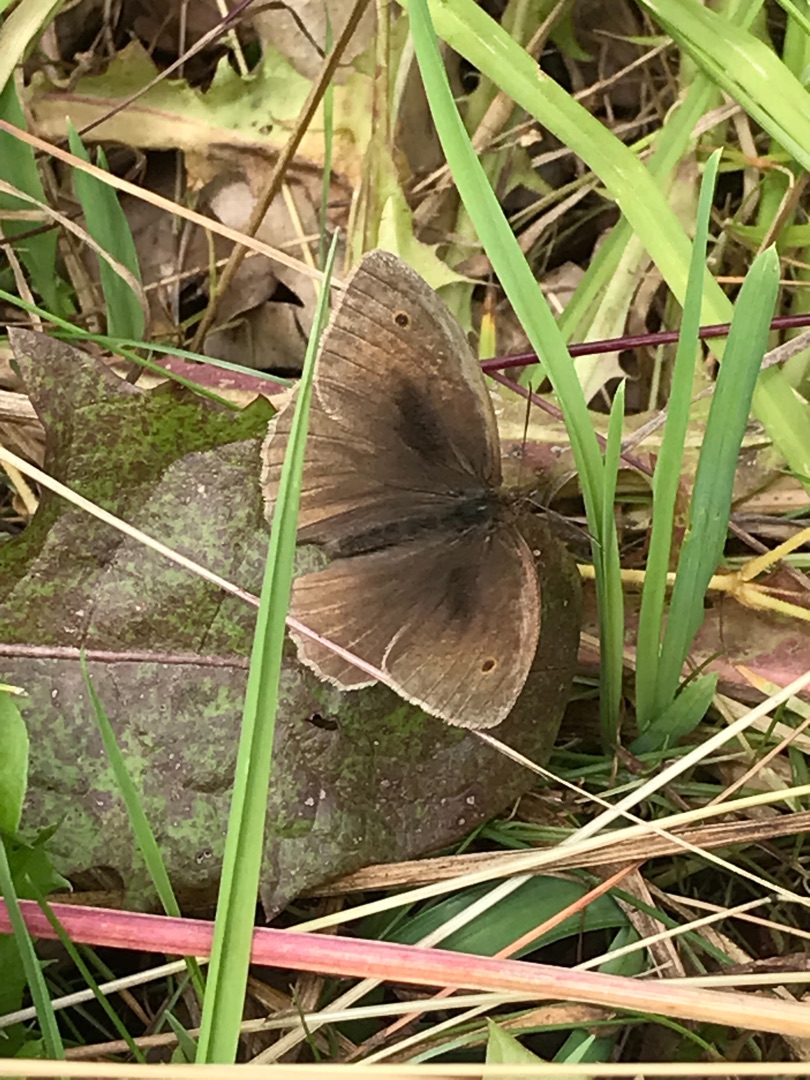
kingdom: Animalia
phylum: Arthropoda
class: Insecta
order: Lepidoptera
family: Nymphalidae
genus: Maniola
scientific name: Maniola jurtina
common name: Græsrandøje
